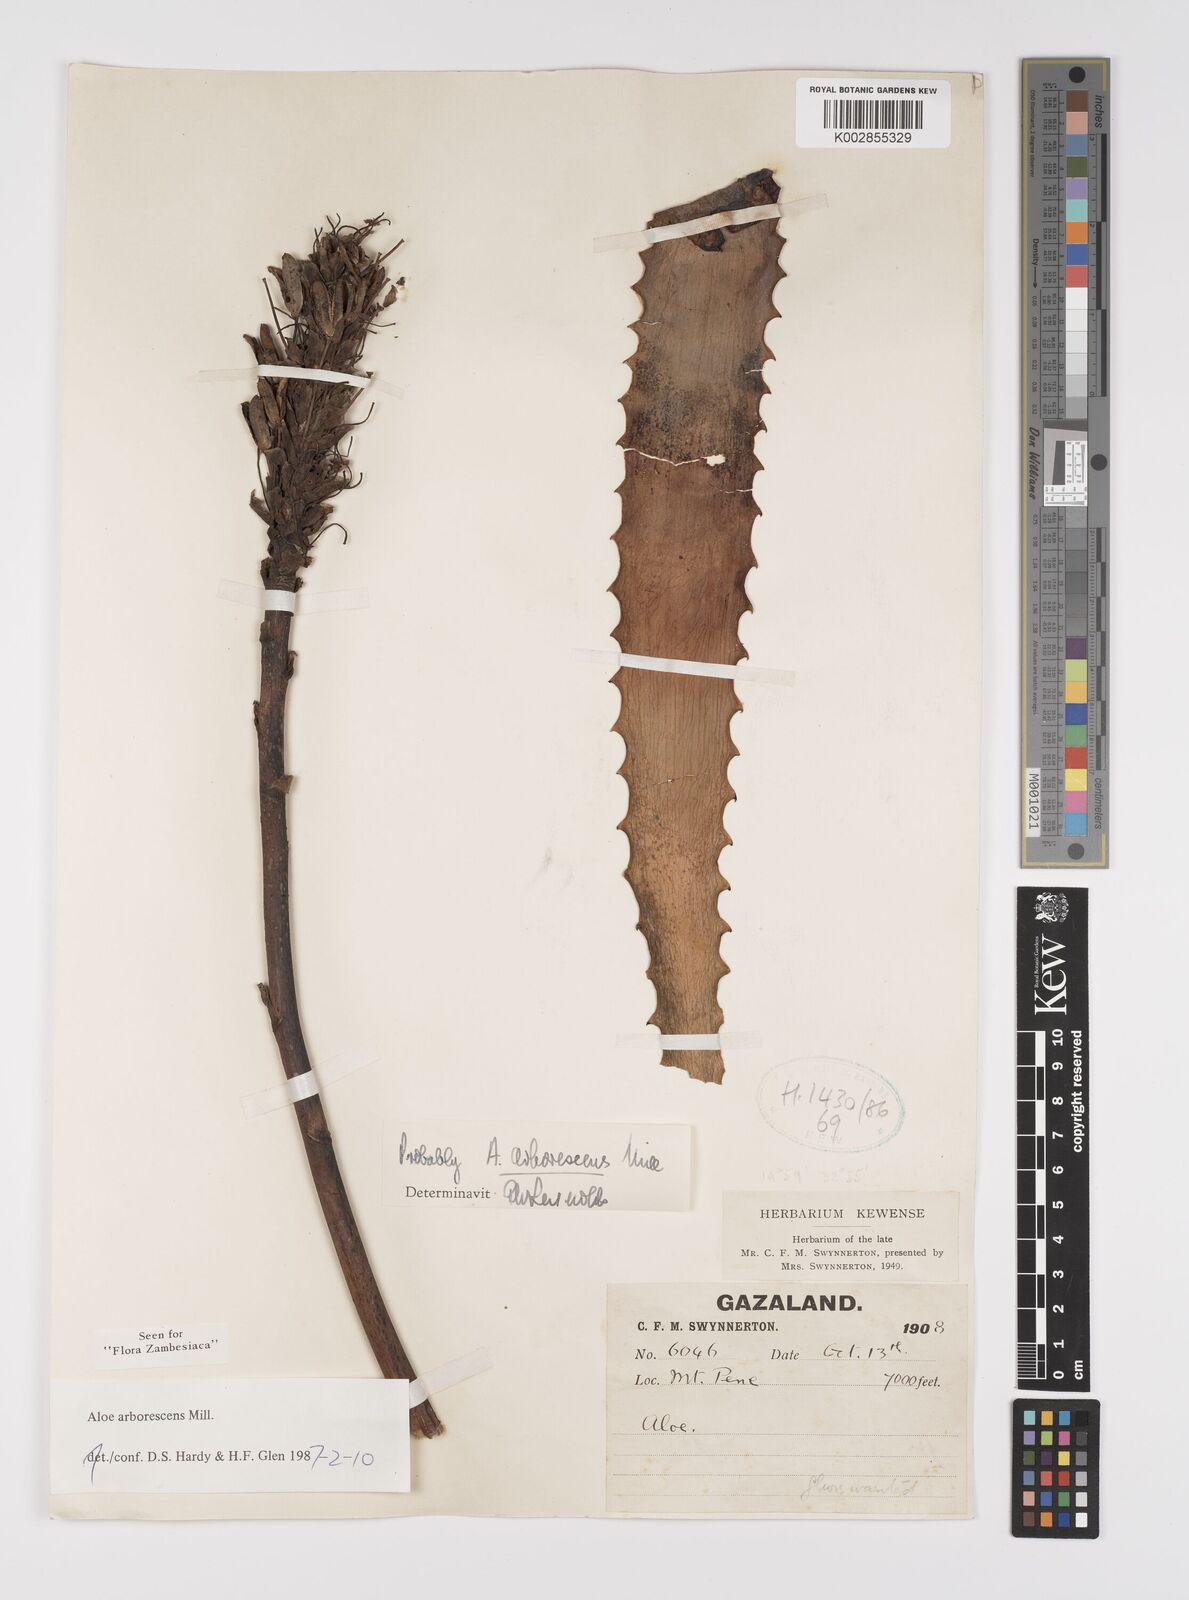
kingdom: Plantae
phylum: Tracheophyta
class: Liliopsida
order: Asparagales
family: Asphodelaceae
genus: Aloe
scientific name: Aloe arborescens
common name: Candelabra aloe
